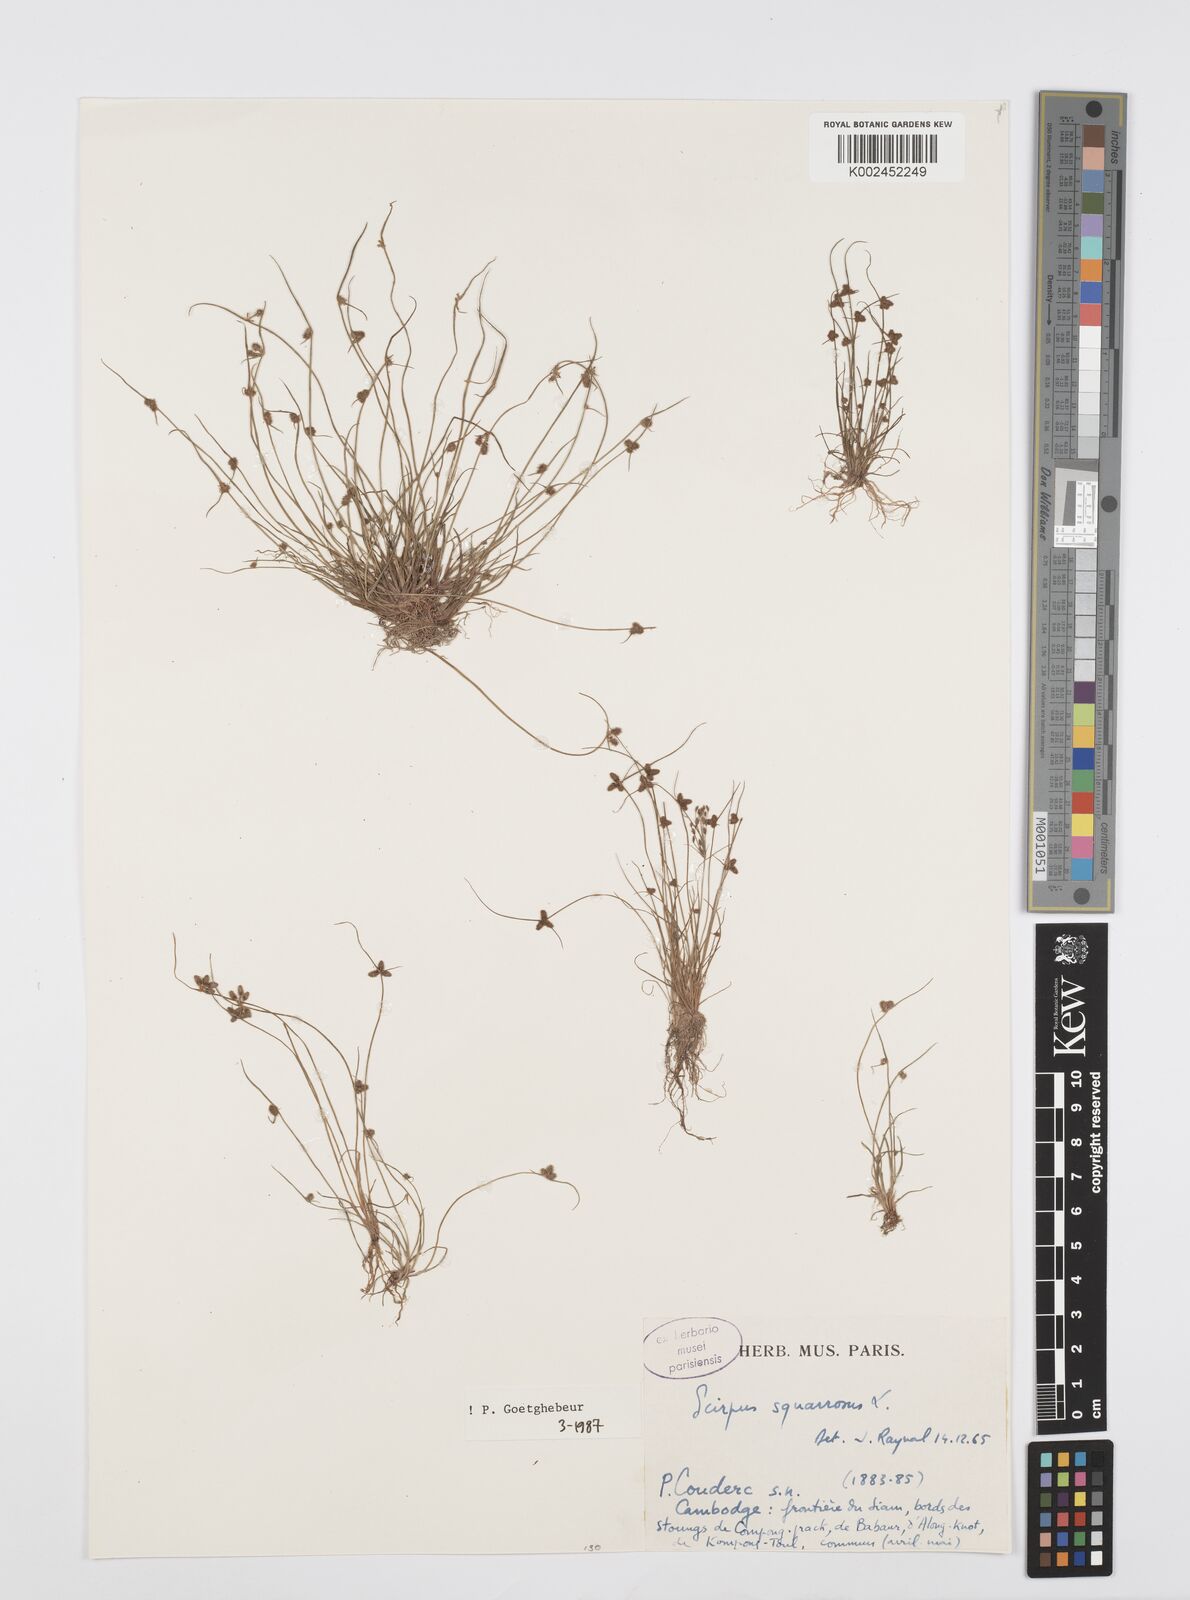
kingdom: Plantae
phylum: Tracheophyta
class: Liliopsida
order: Poales
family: Cyperaceae
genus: Cyperus
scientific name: Cyperus squarrosus
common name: Awned cyperus
